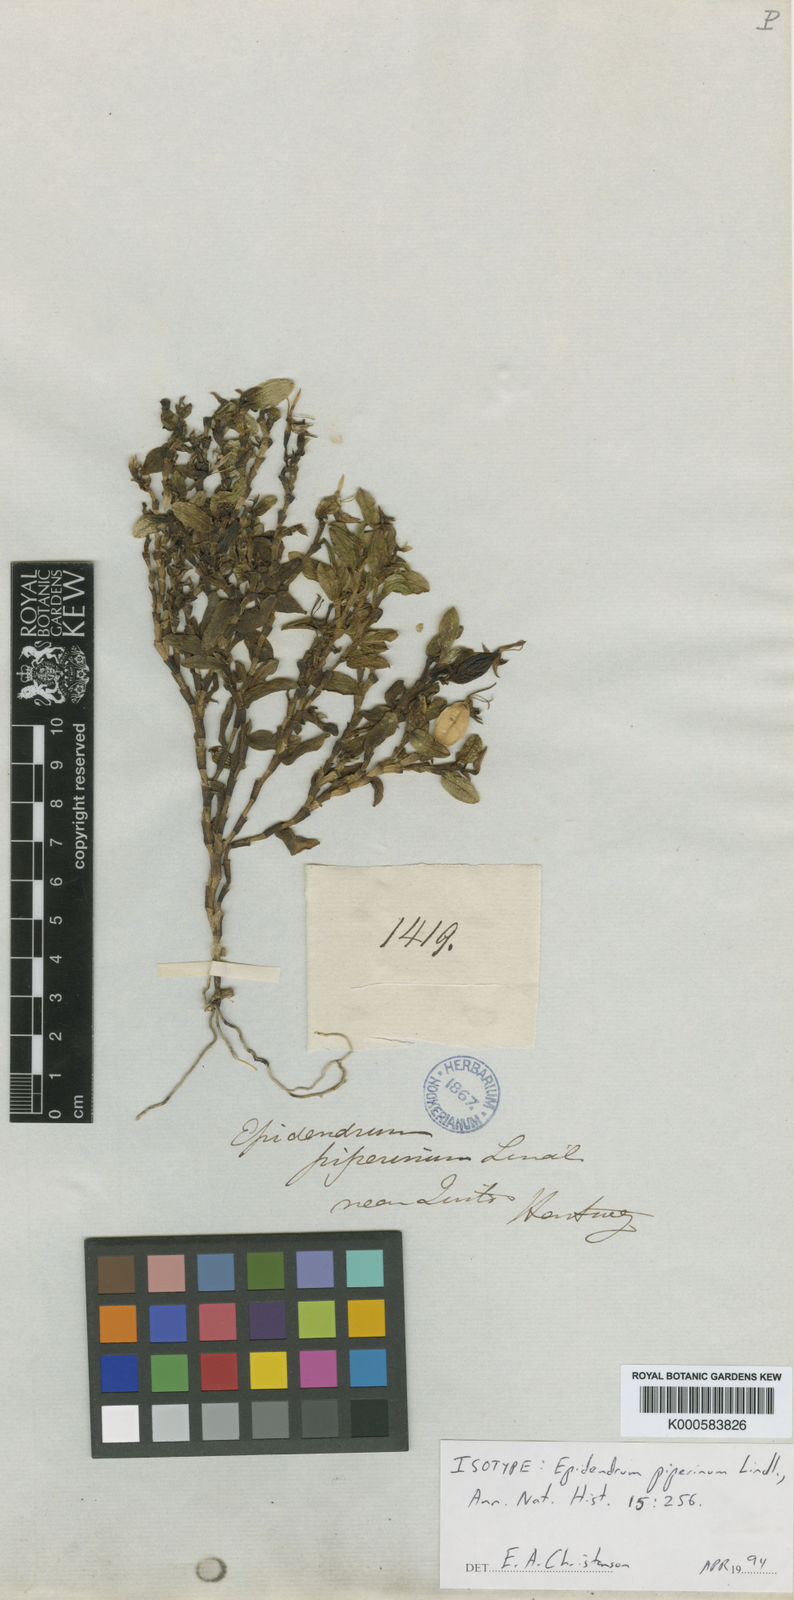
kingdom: Plantae
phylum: Tracheophyta
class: Liliopsida
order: Asparagales
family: Orchidaceae
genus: Epidendrum
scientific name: Epidendrum piperinum
